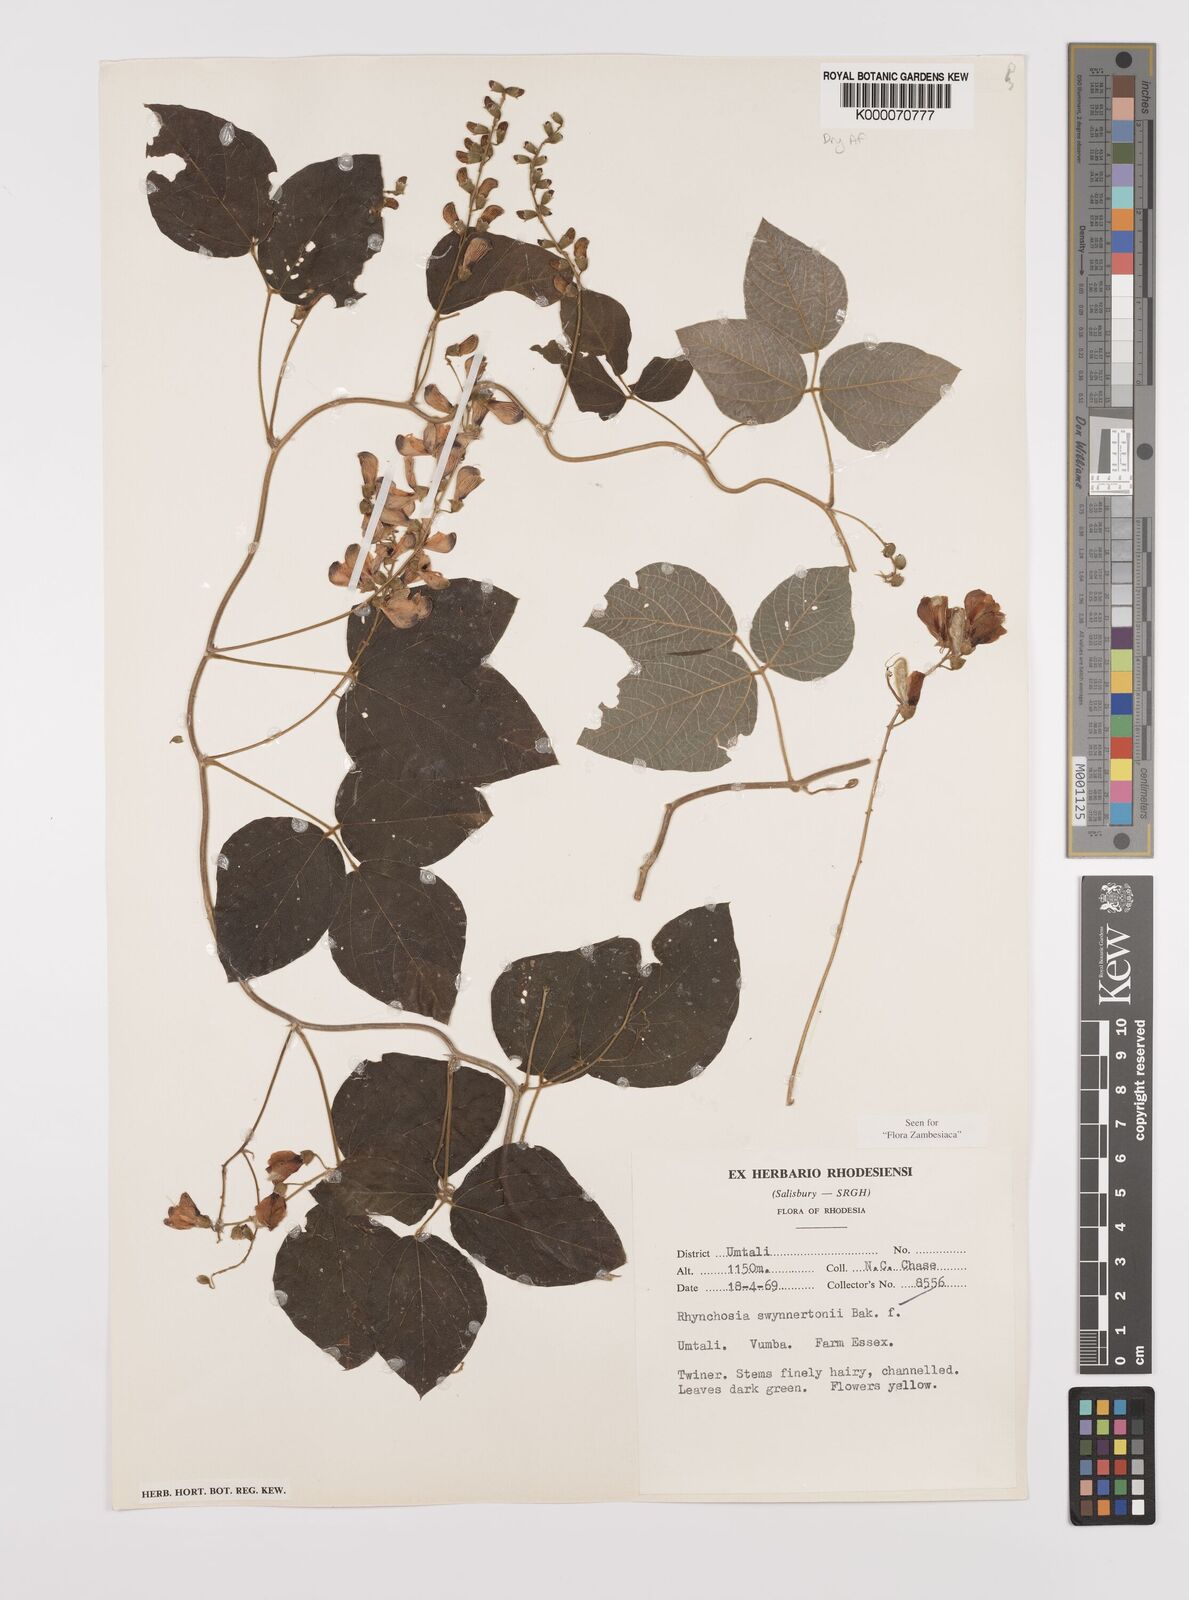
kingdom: Plantae
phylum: Tracheophyta
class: Magnoliopsida
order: Fabales
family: Fabaceae
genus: Rhynchosia
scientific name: Rhynchosia swynnertonii
